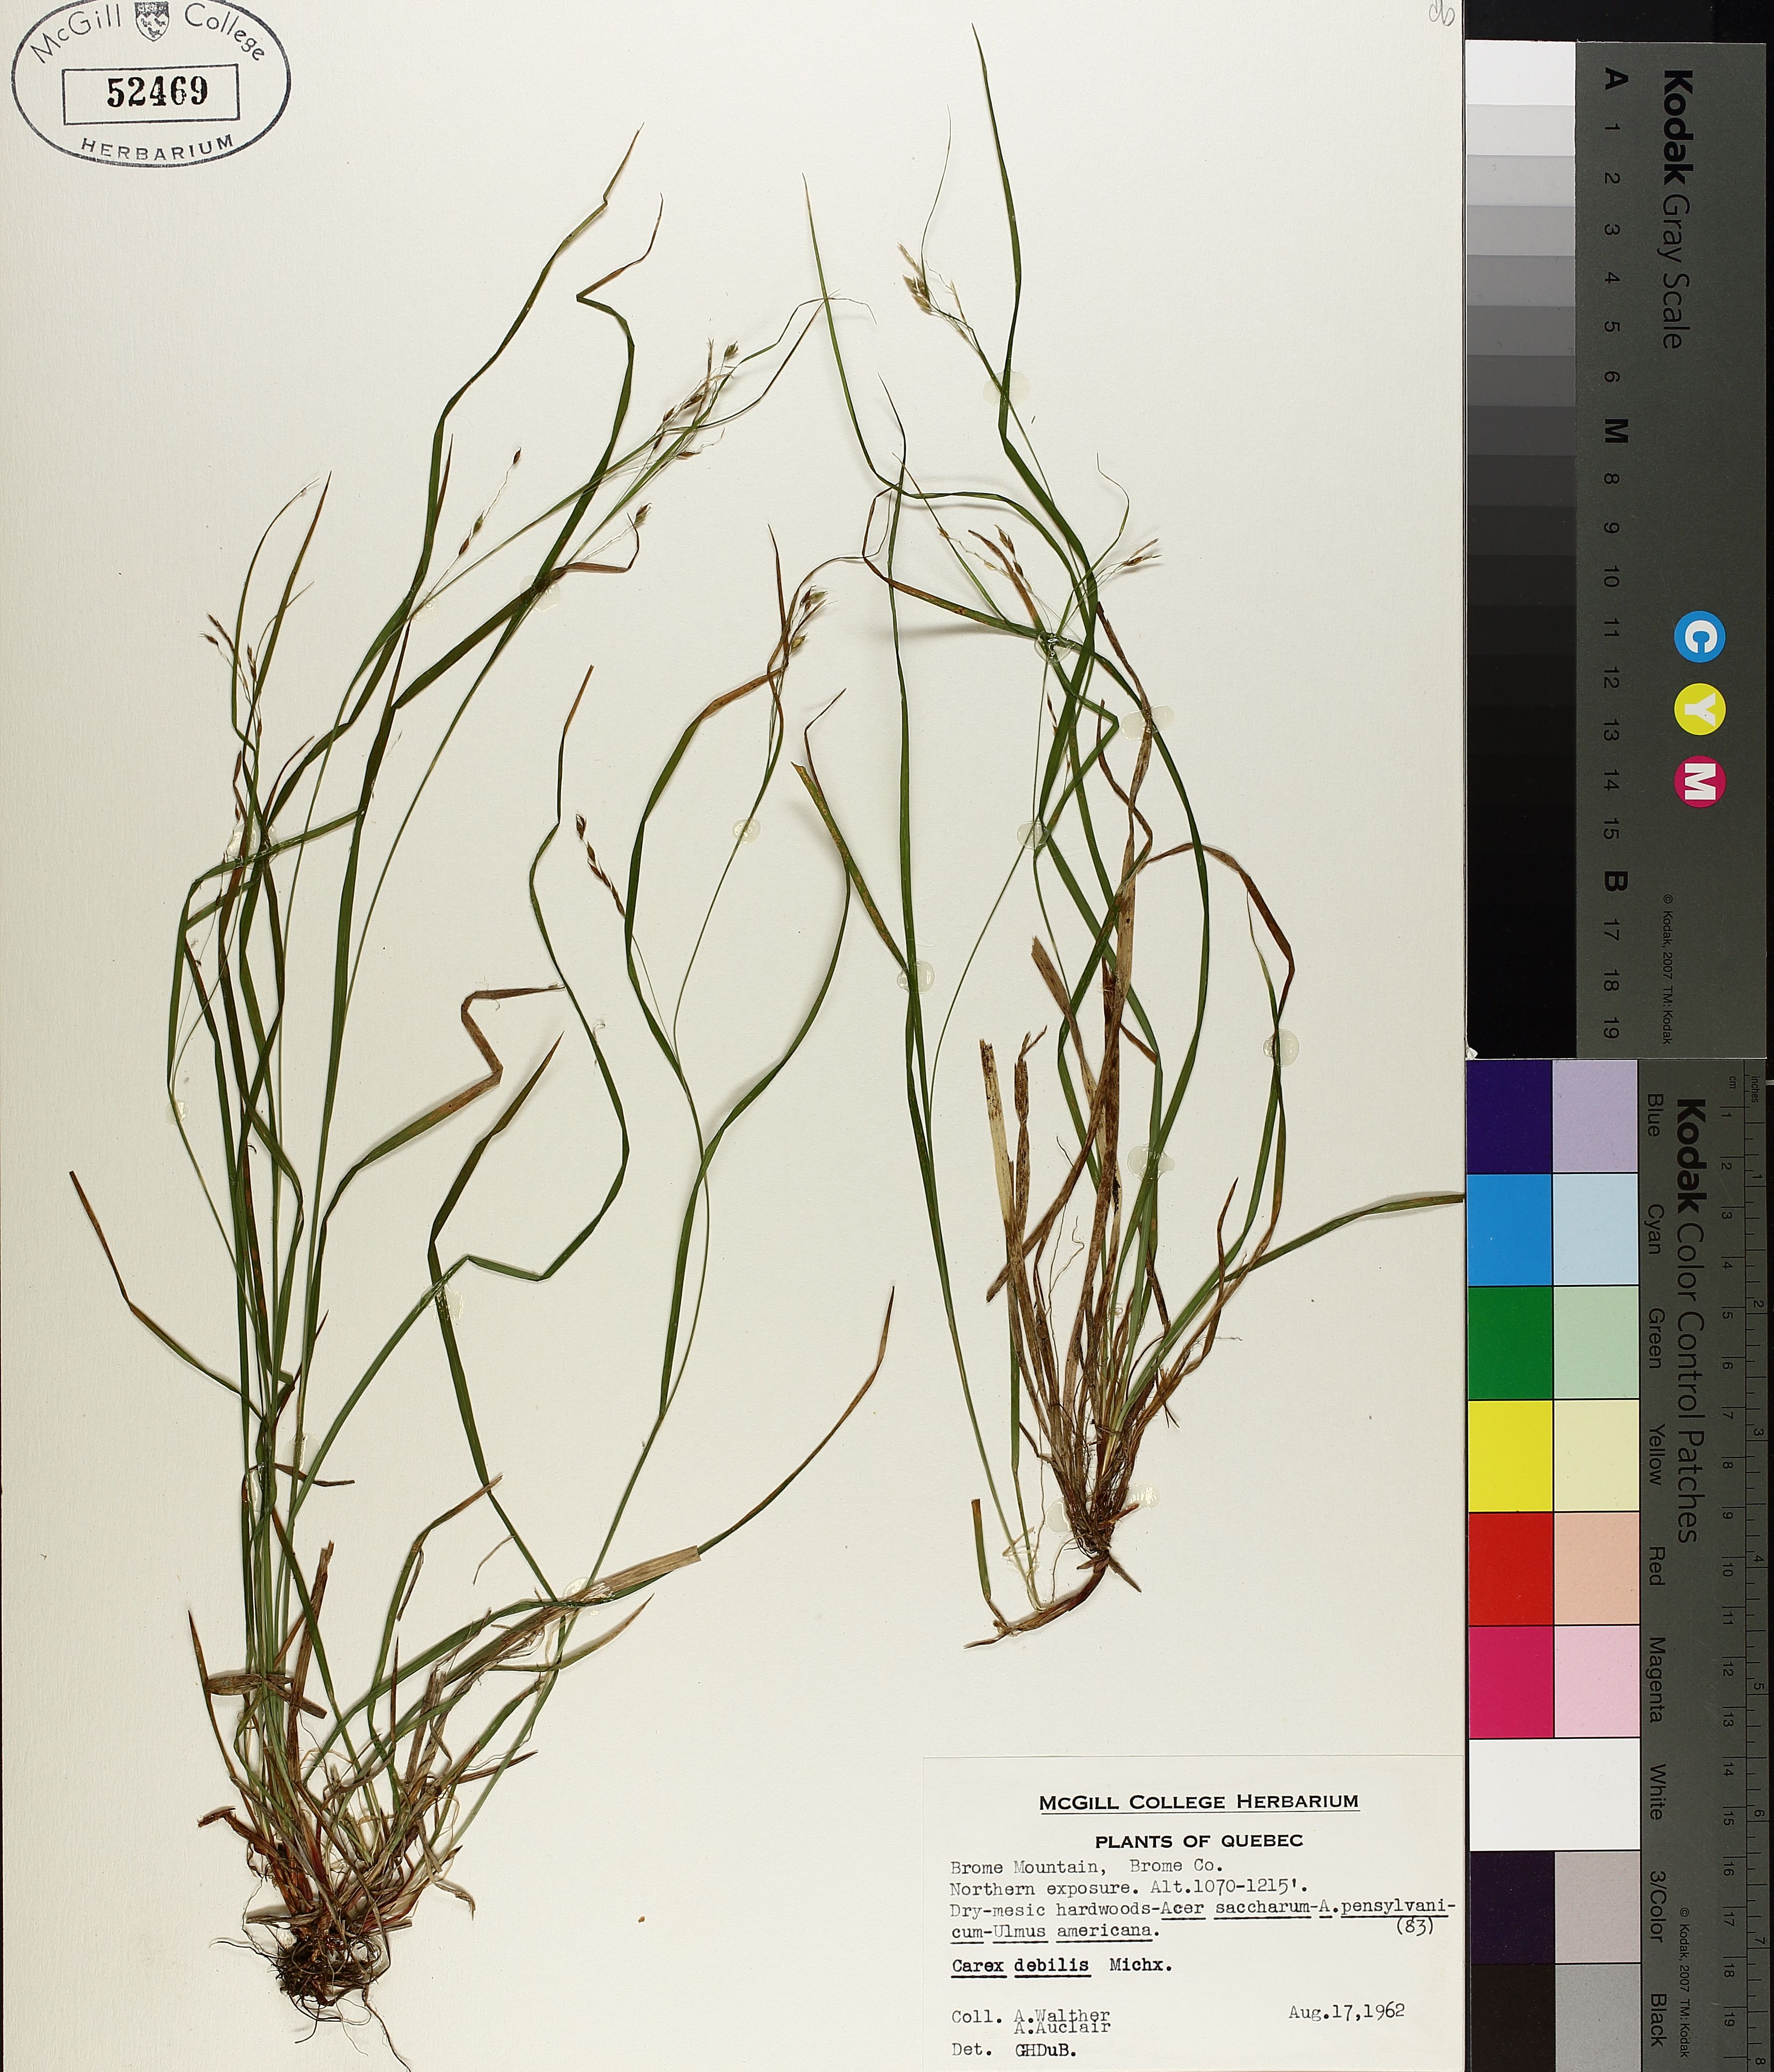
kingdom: Plantae
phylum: Tracheophyta
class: Liliopsida
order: Poales
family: Cyperaceae
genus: Carex
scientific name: Carex debilis
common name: White-edge sedge
